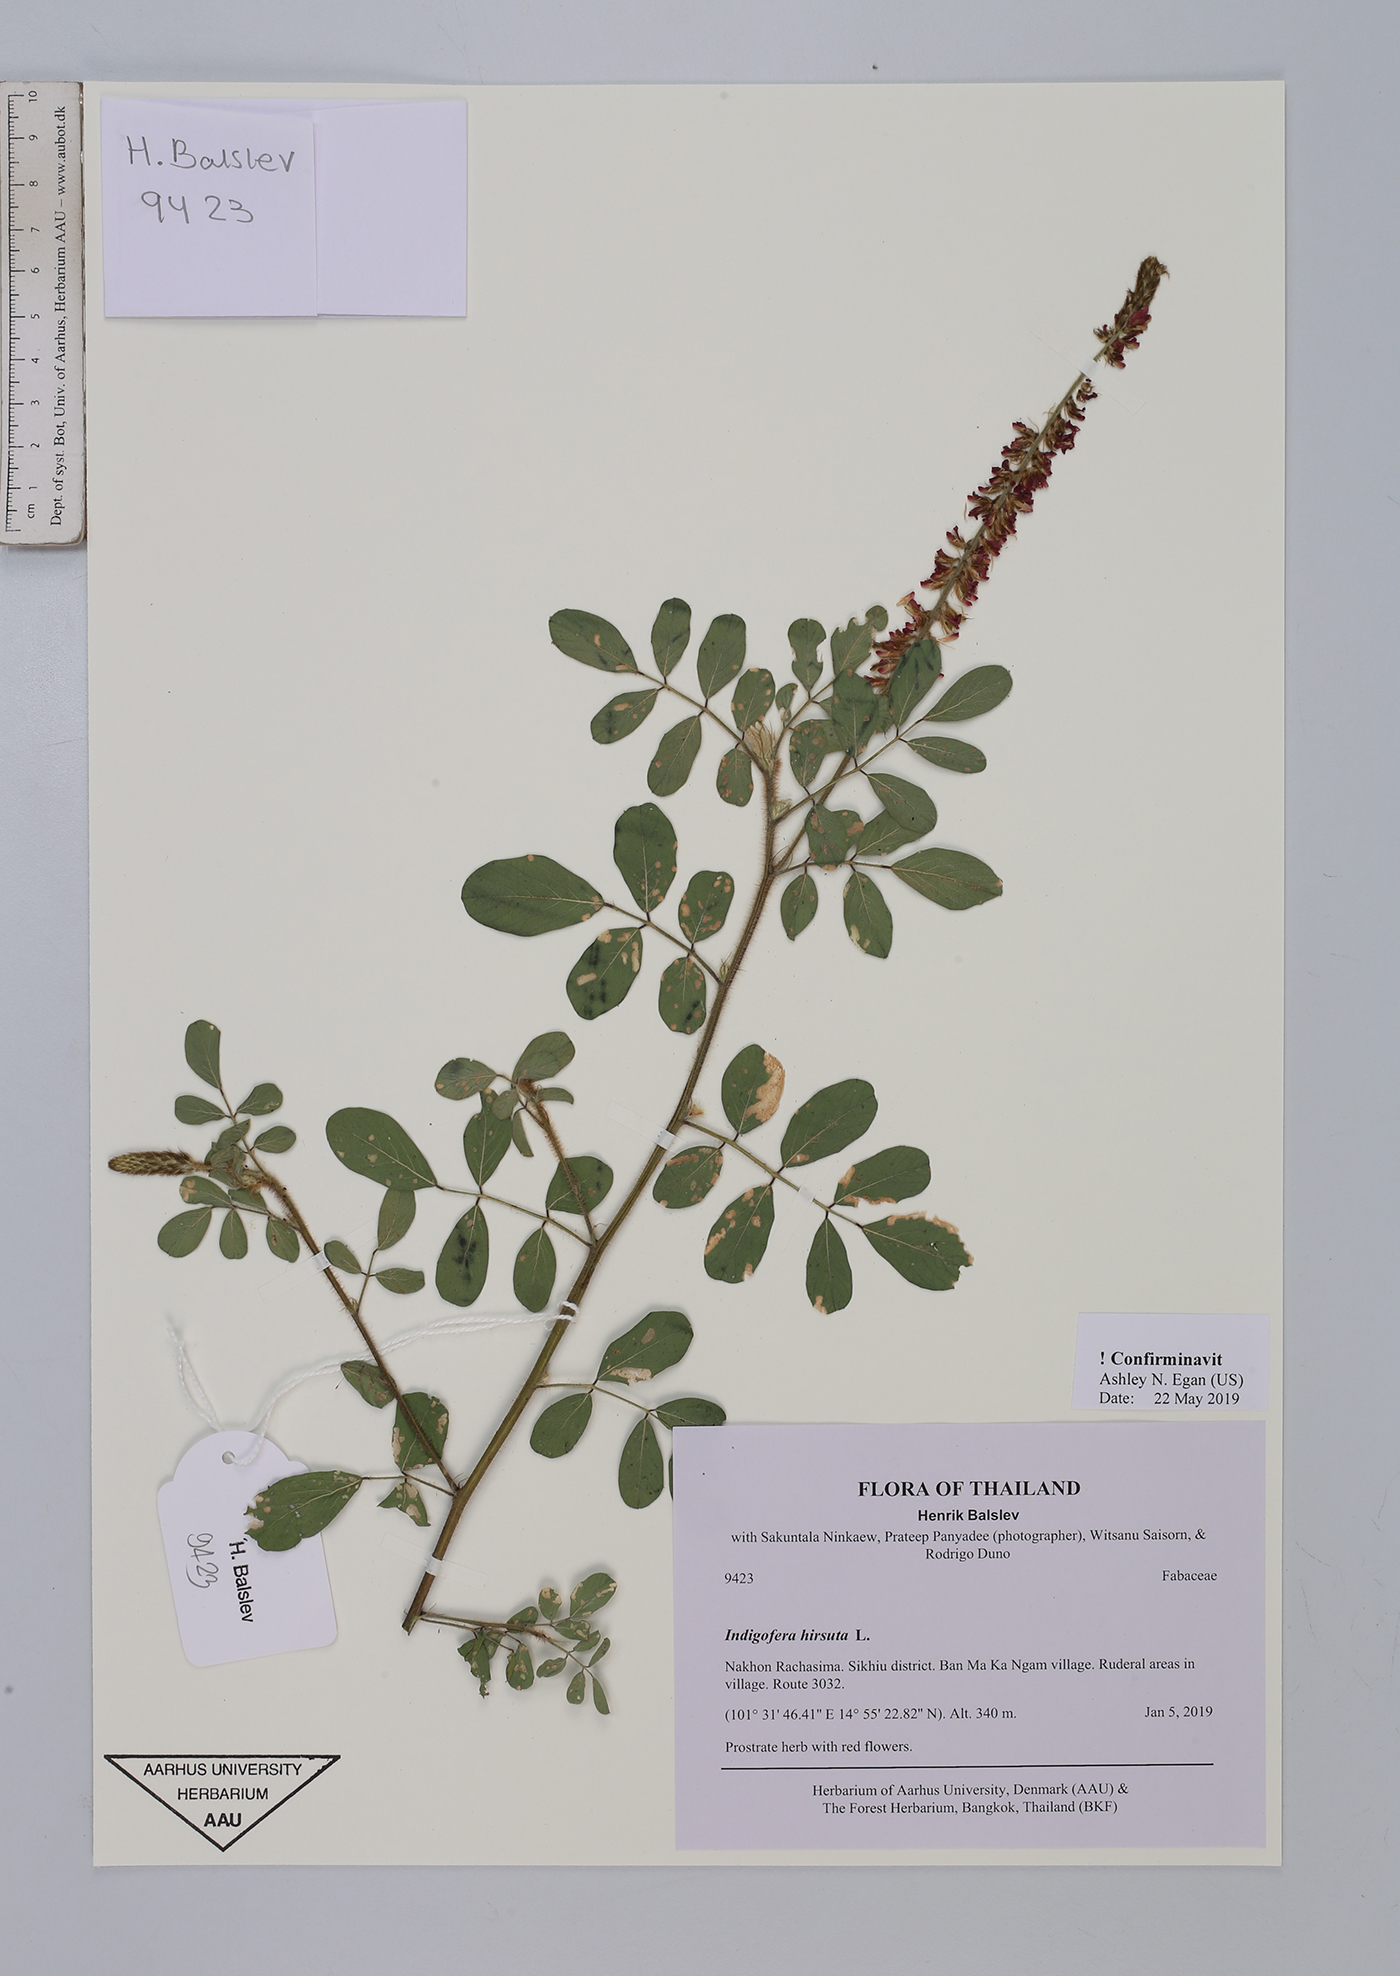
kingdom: Plantae
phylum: Tracheophyta
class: Magnoliopsida
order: Fabales
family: Fabaceae
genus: Indigofera
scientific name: Indigofera hirsuta
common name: Hairy indigo
